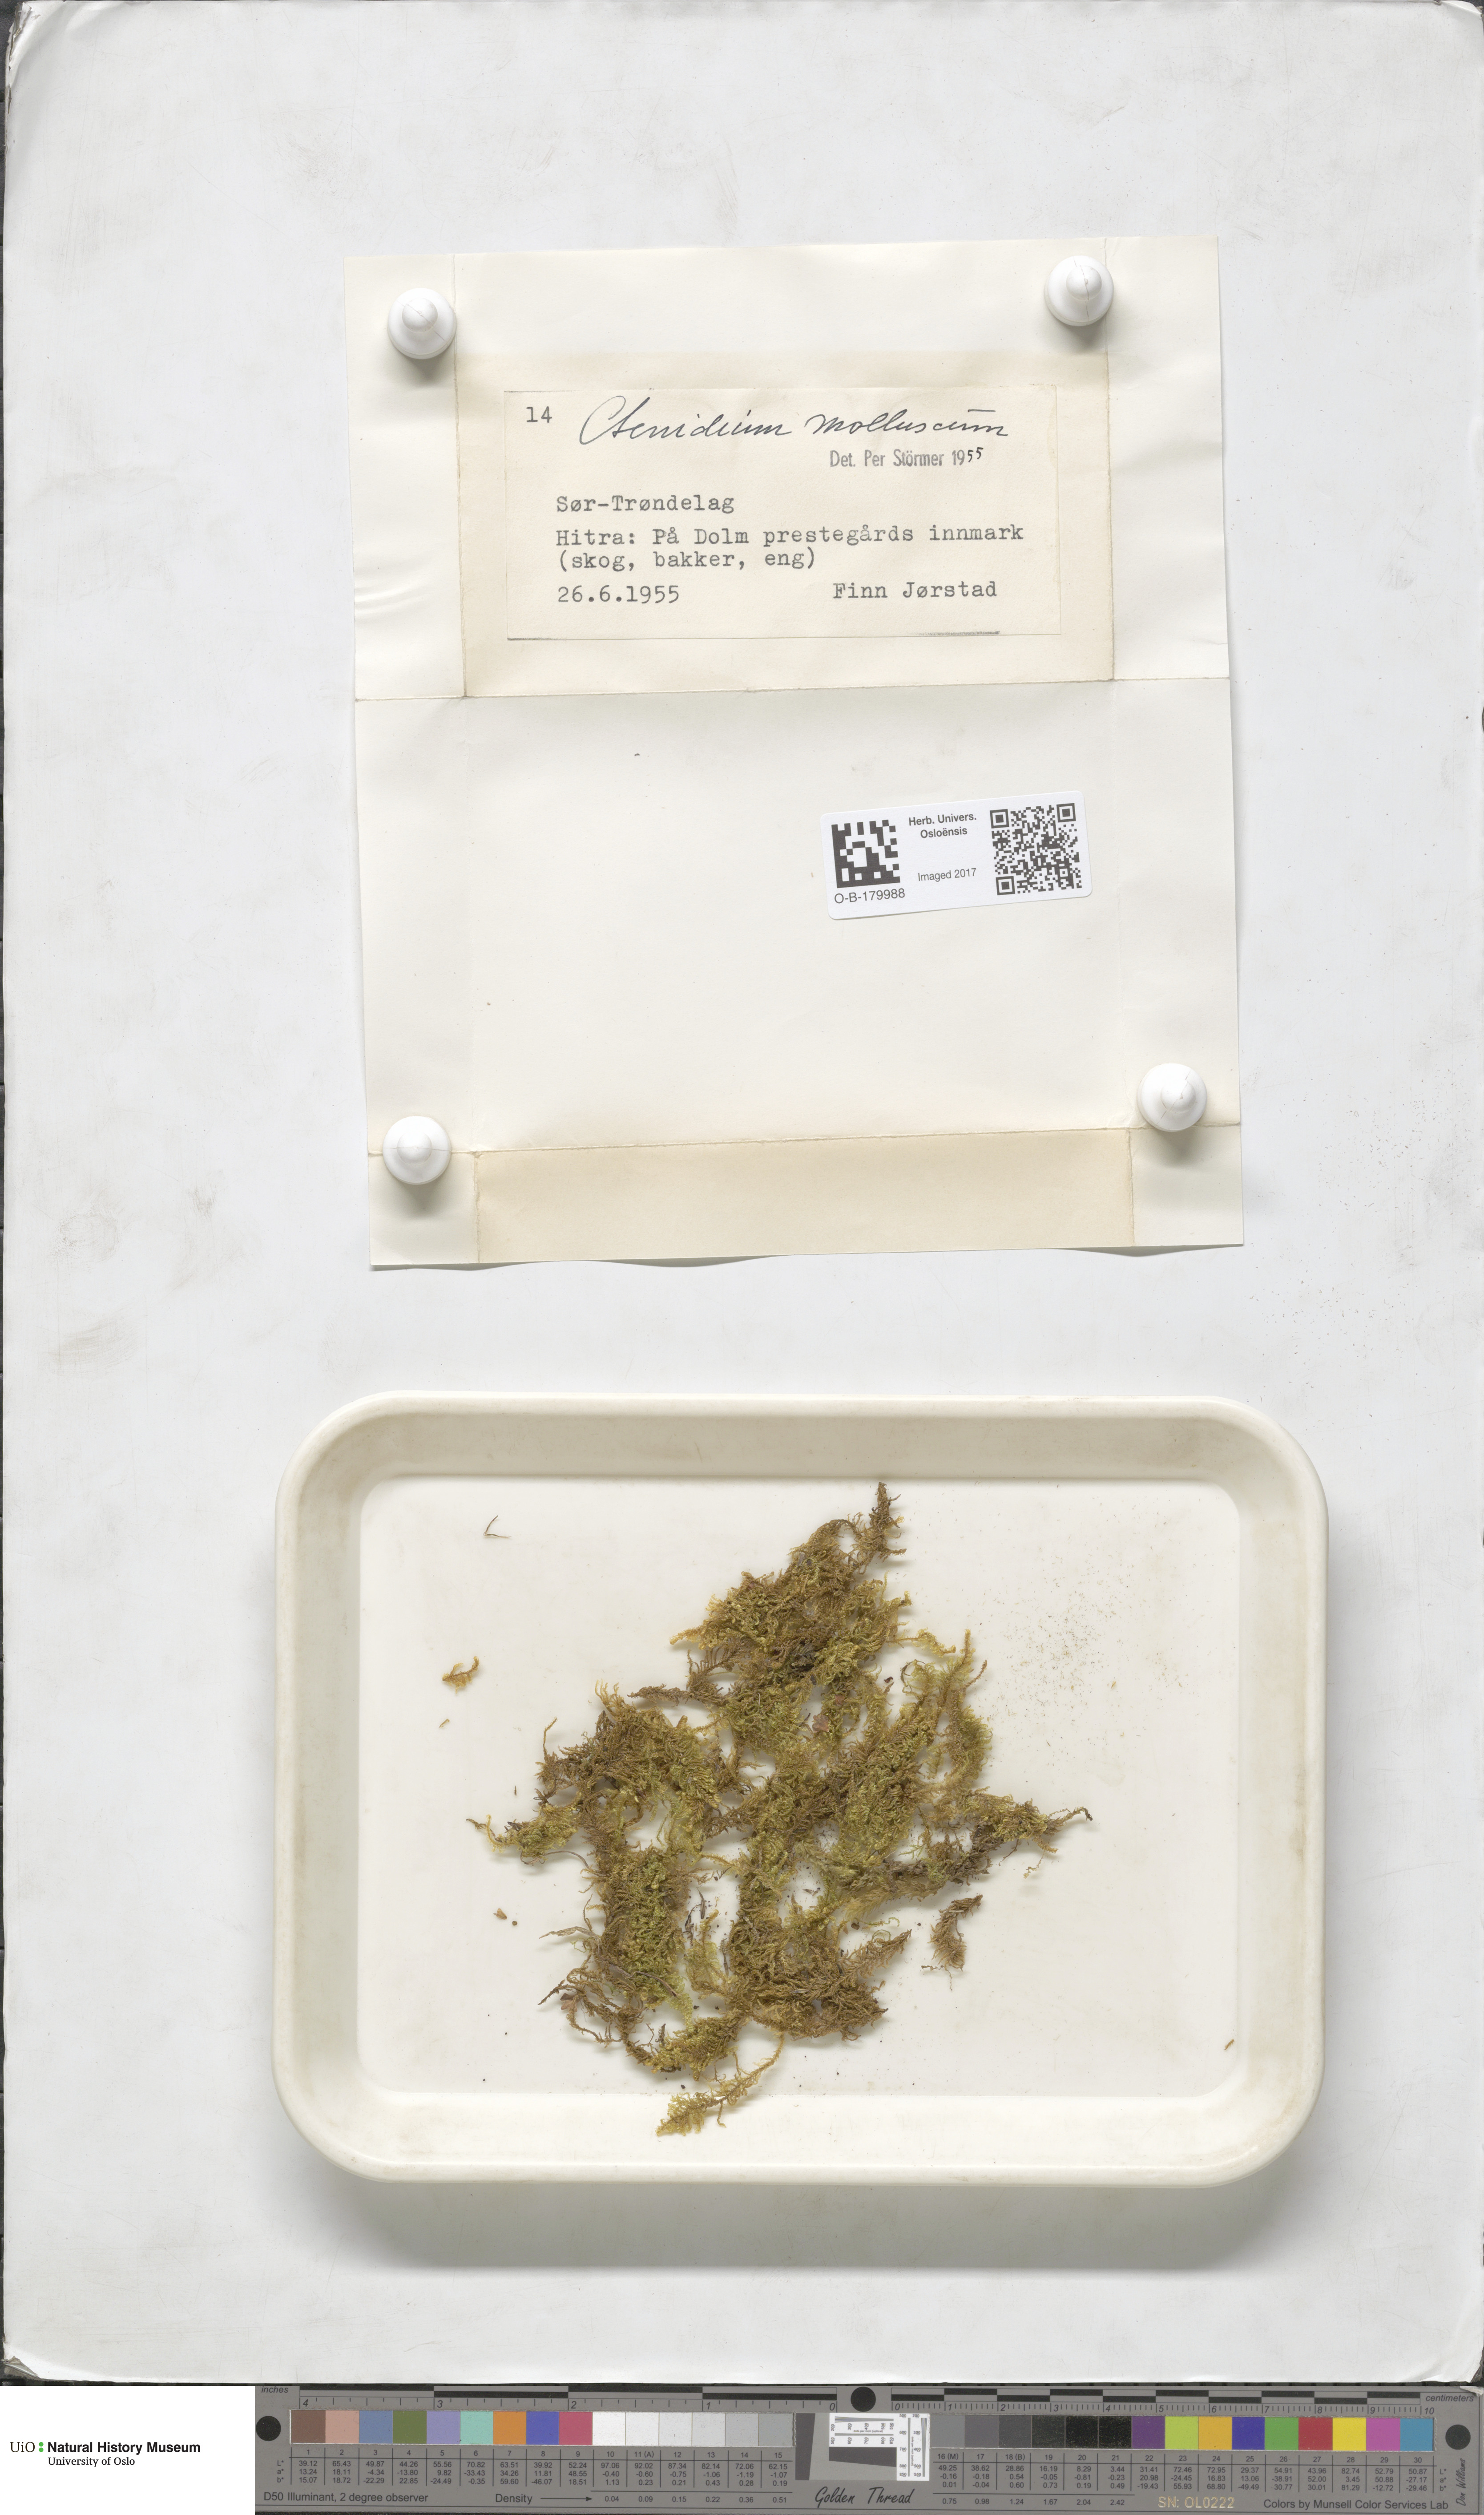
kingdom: Plantae
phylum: Bryophyta
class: Bryopsida
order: Hypnales
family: Myuriaceae
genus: Ctenidium
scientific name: Ctenidium molluscum
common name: Chalk comb-moss
